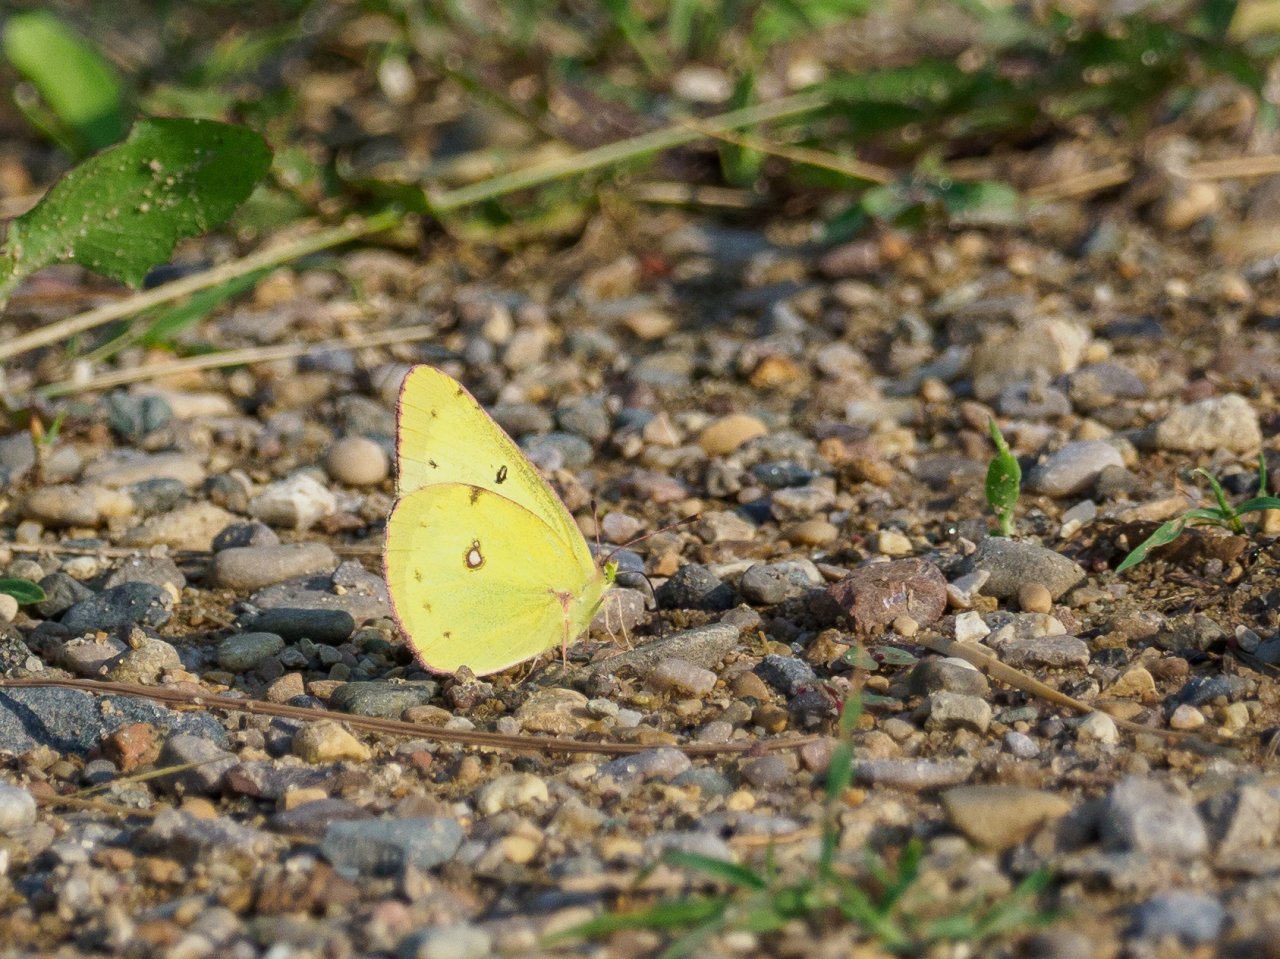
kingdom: Animalia
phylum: Arthropoda
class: Insecta
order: Lepidoptera
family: Pieridae
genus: Colias
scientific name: Colias philodice
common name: Clouded Sulphur
